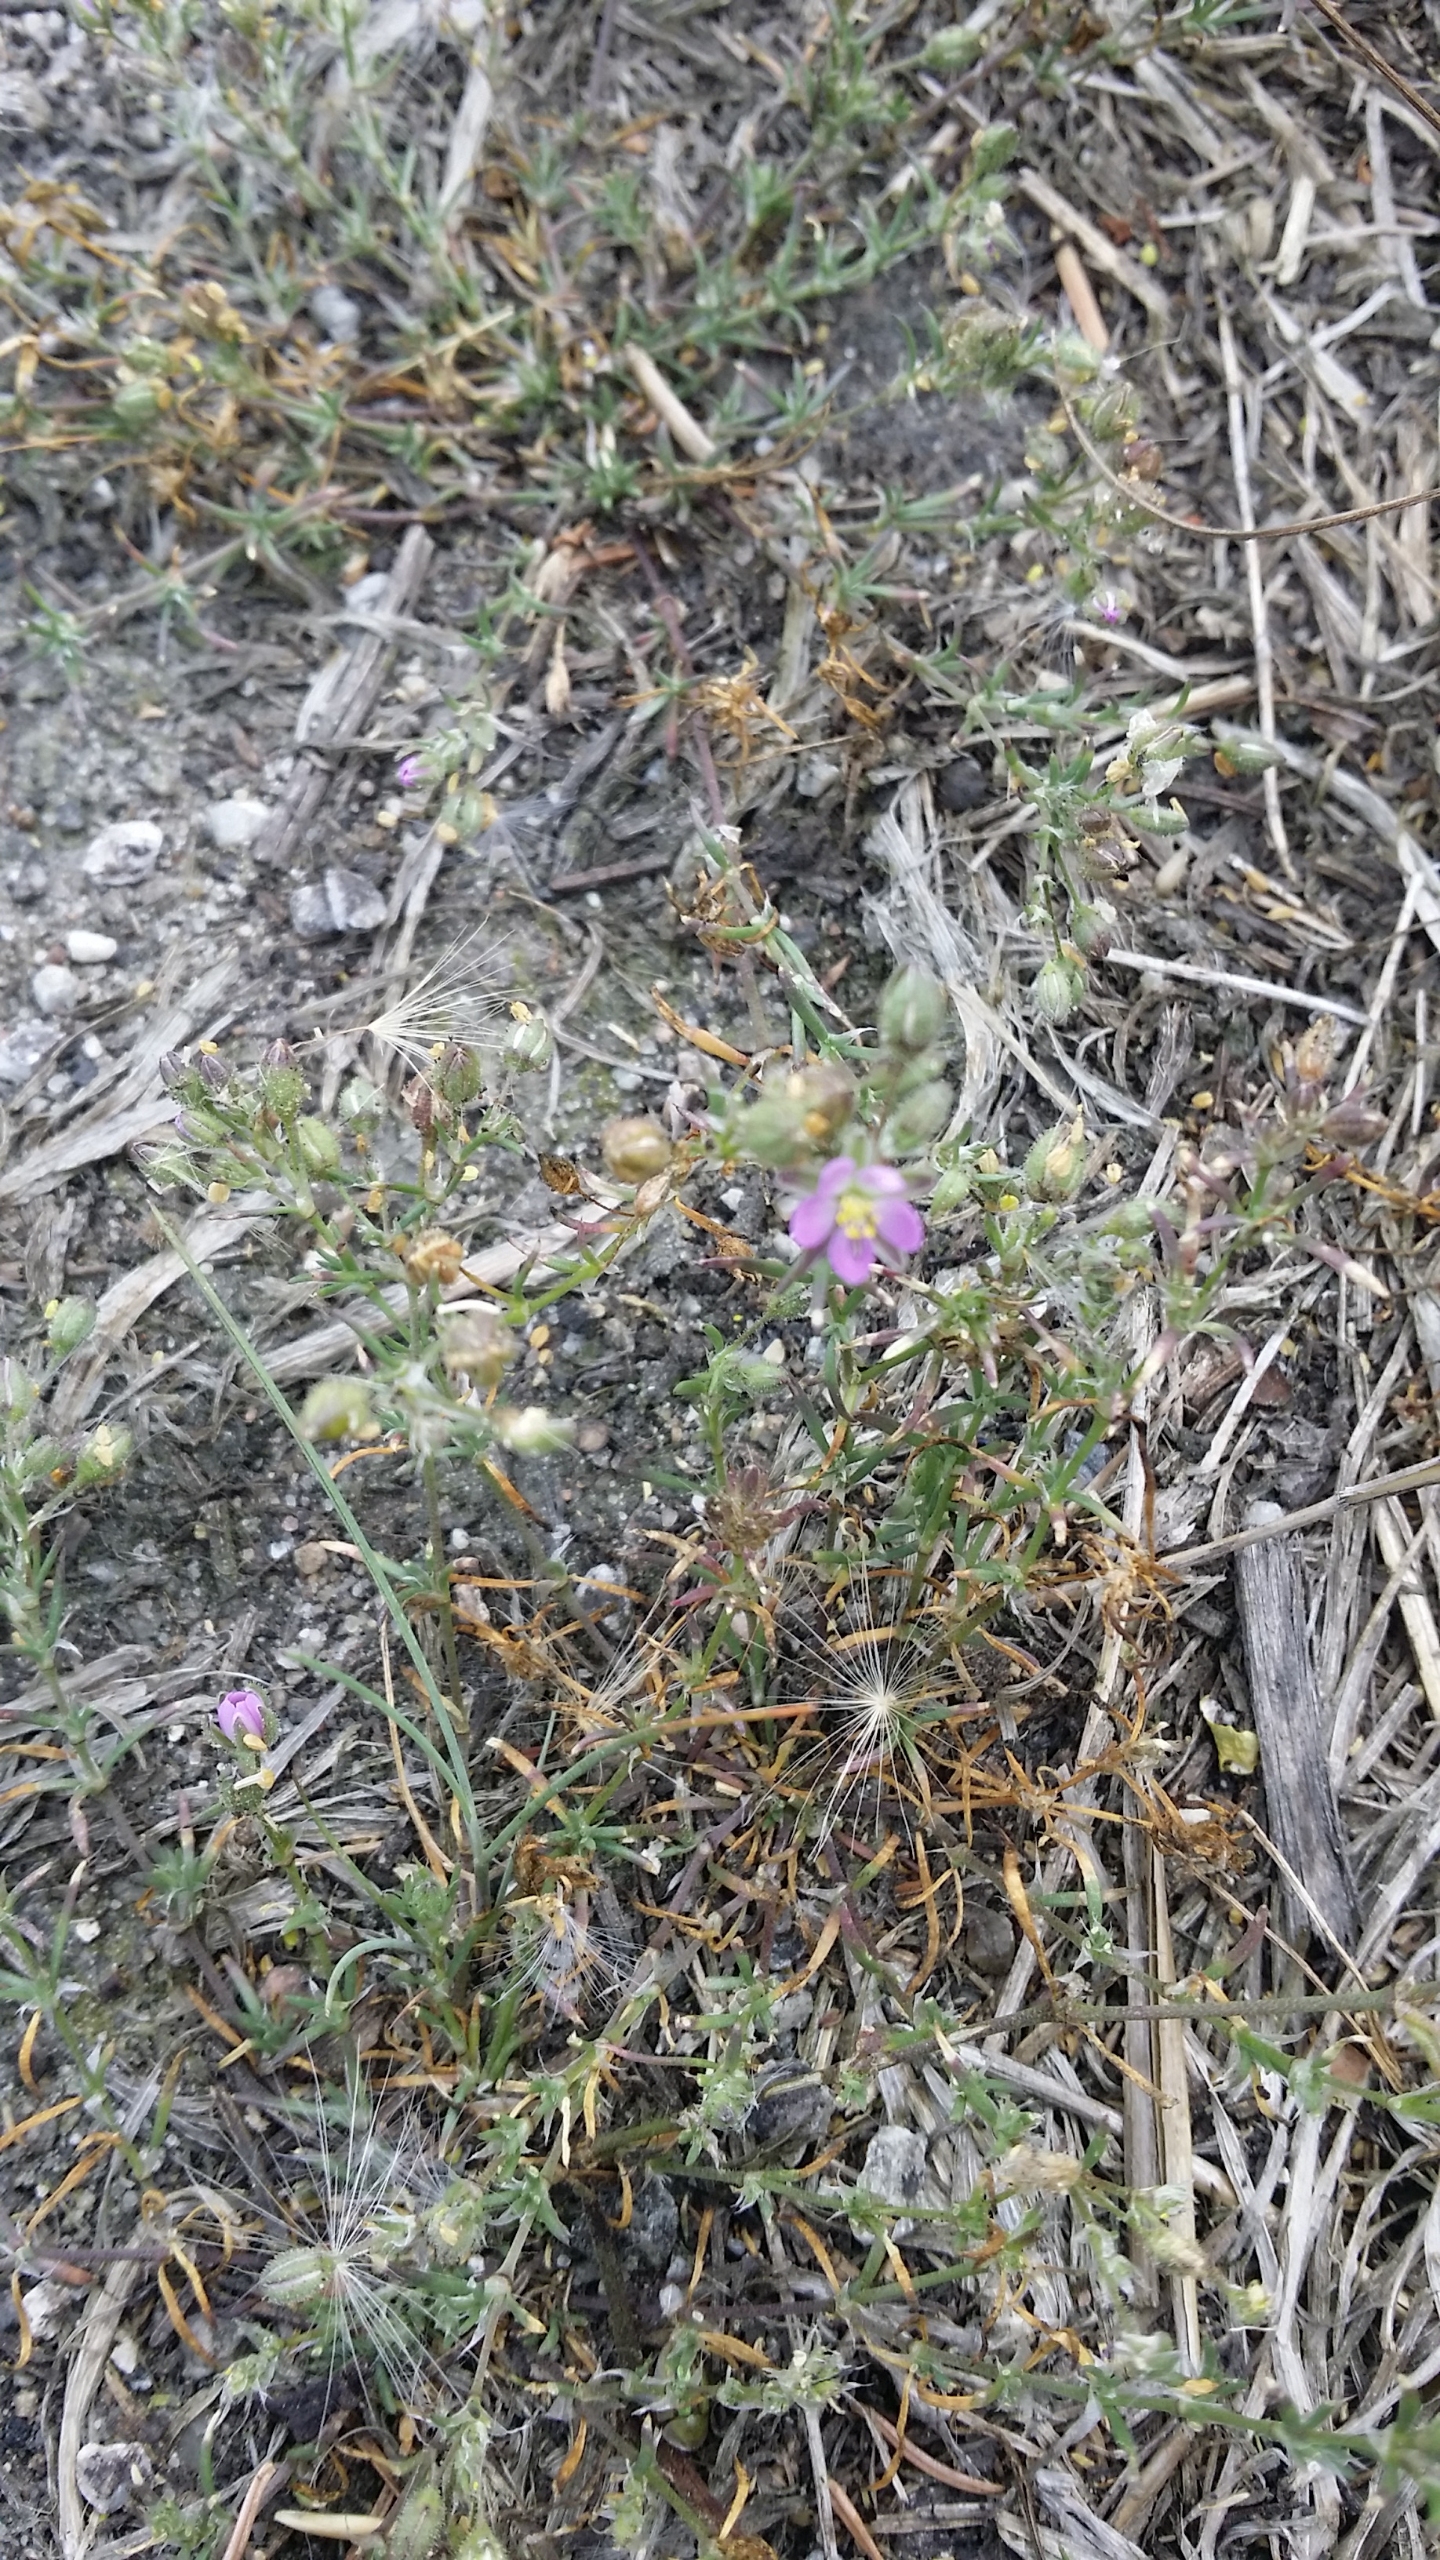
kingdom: Plantae
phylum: Tracheophyta
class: Magnoliopsida
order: Caryophyllales
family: Caryophyllaceae
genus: Spergularia
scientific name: Spergularia rubra
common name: Mark-hindeknæ
